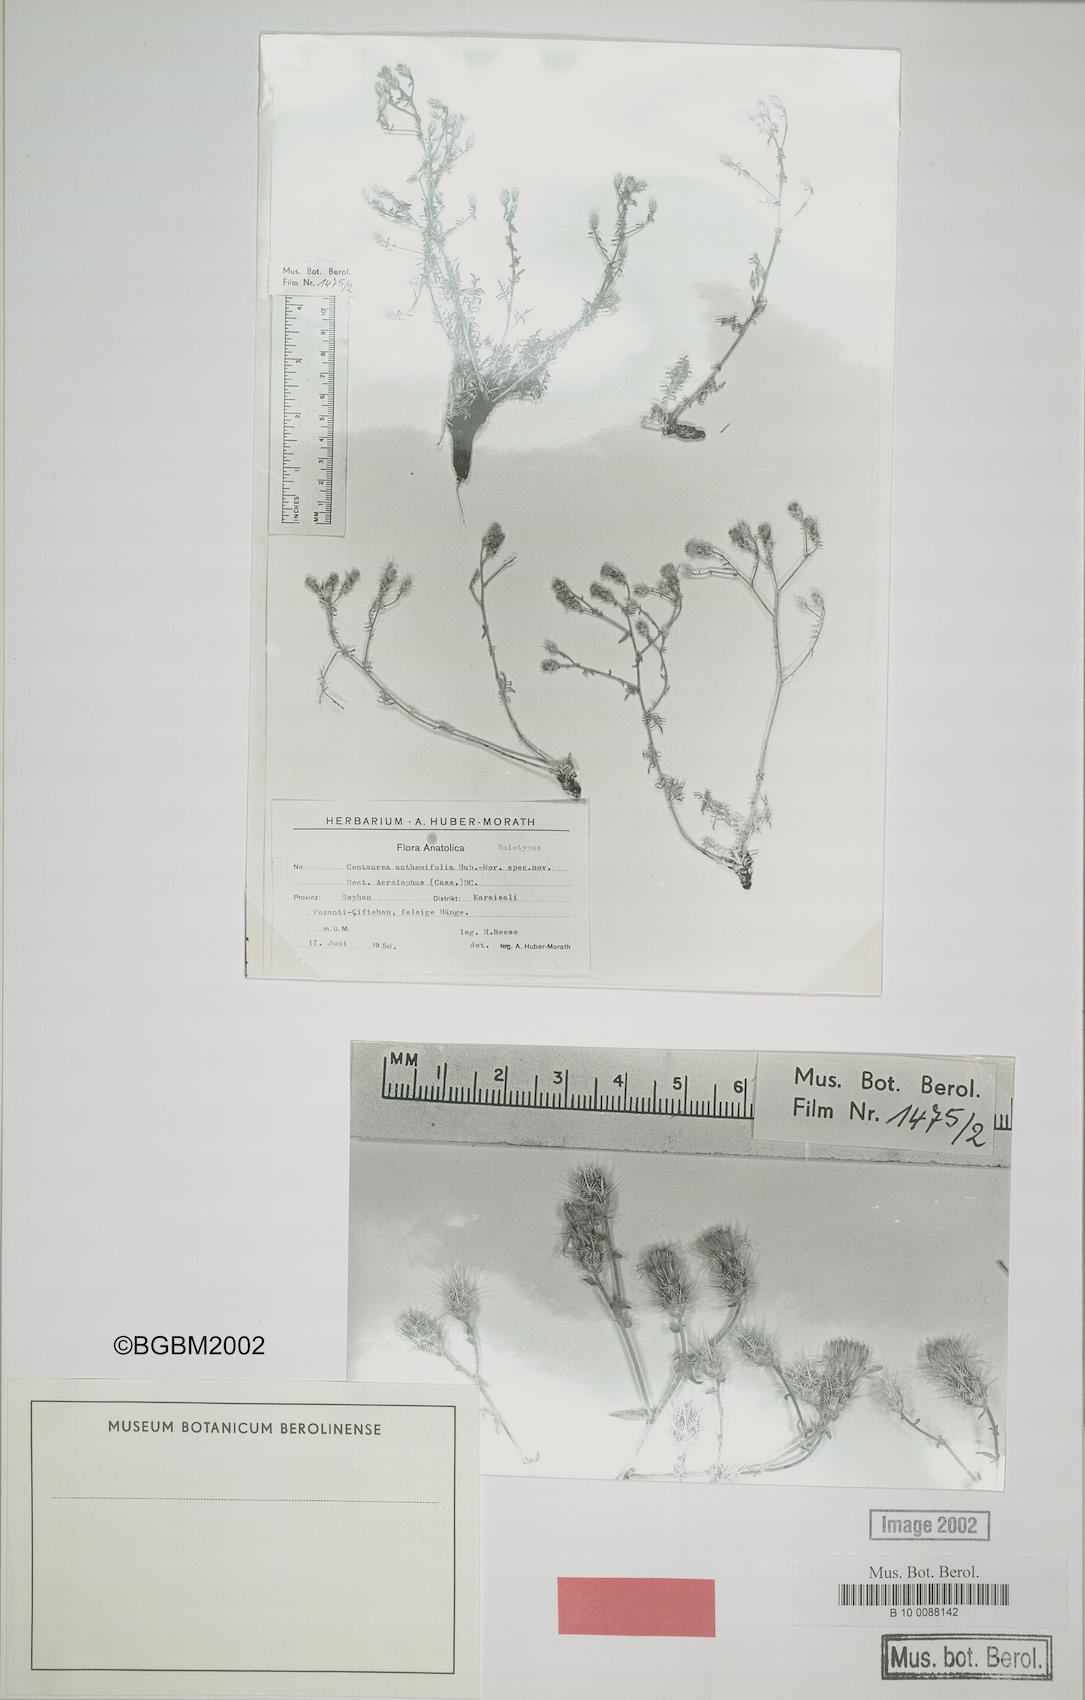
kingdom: Plantae
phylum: Tracheophyta
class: Magnoliopsida
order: Asterales
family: Asteraceae
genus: Centaurea
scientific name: Centaurea anthemifolia
